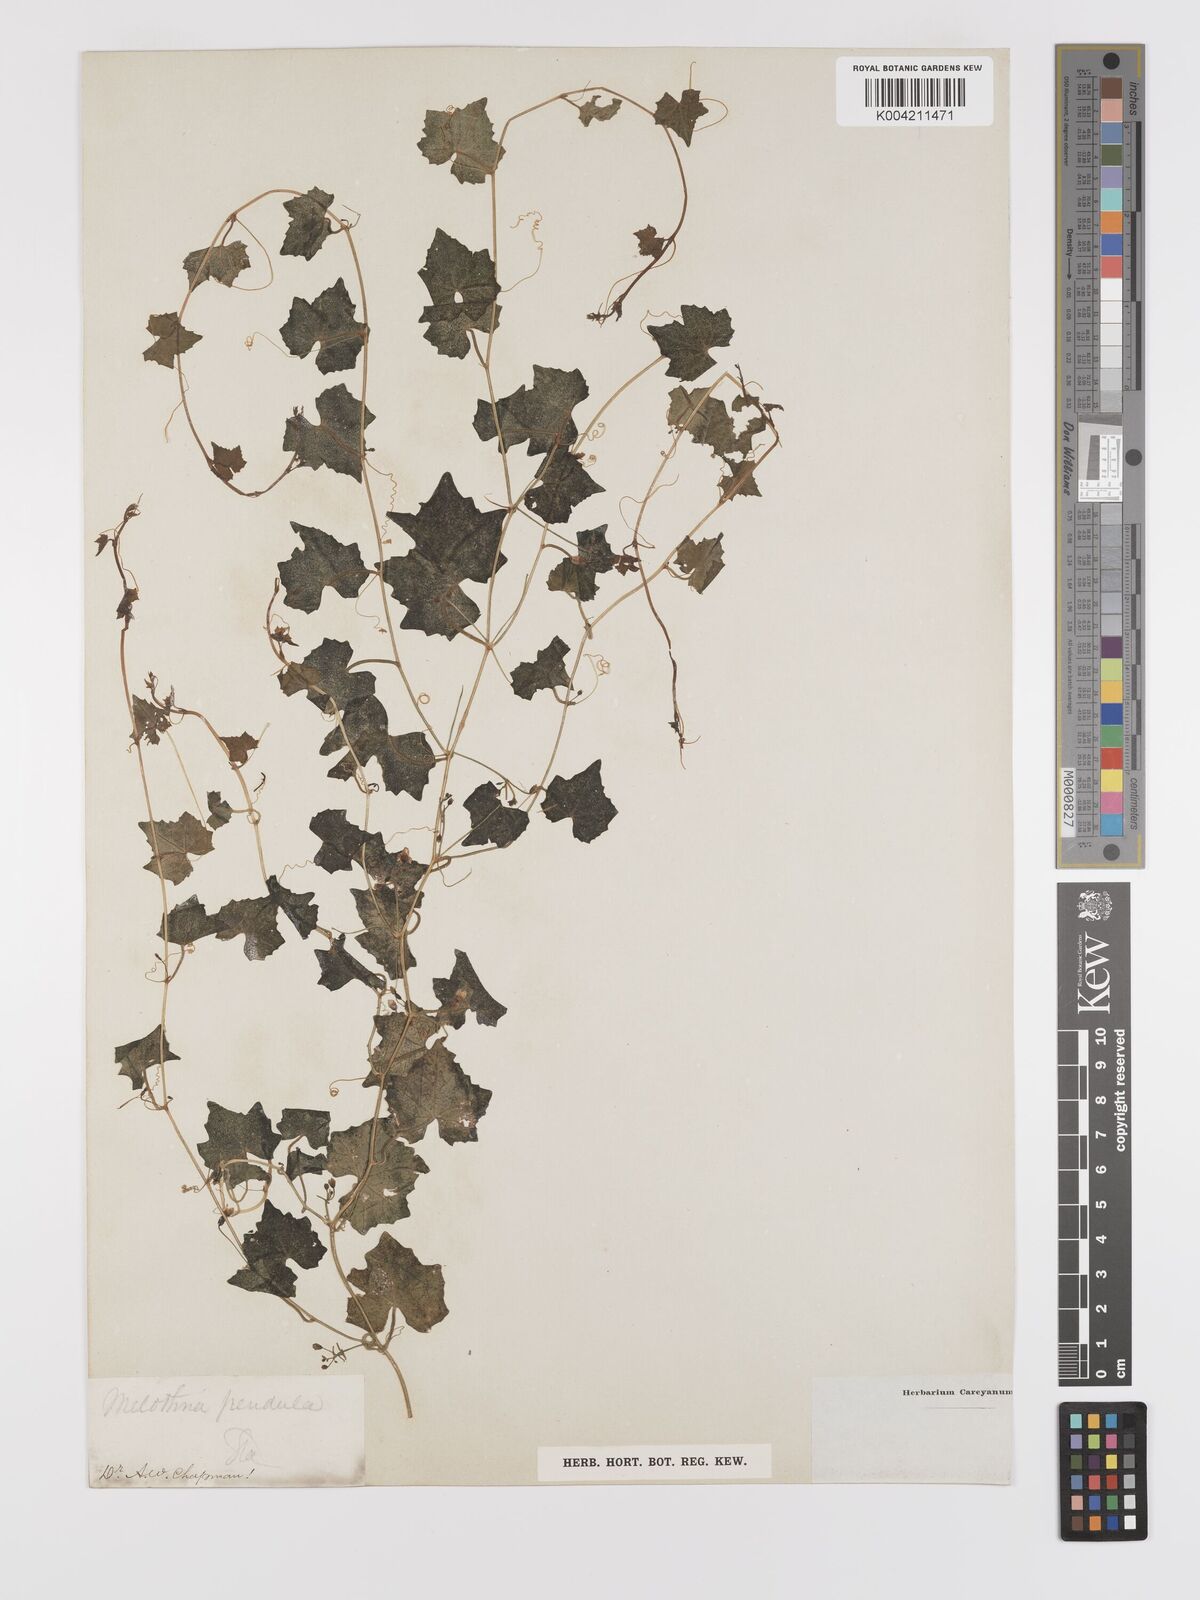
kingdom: Plantae
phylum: Tracheophyta
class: Magnoliopsida
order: Cucurbitales
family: Cucurbitaceae
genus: Melothria
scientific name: Melothria pendula
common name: Creeping-cucumber
